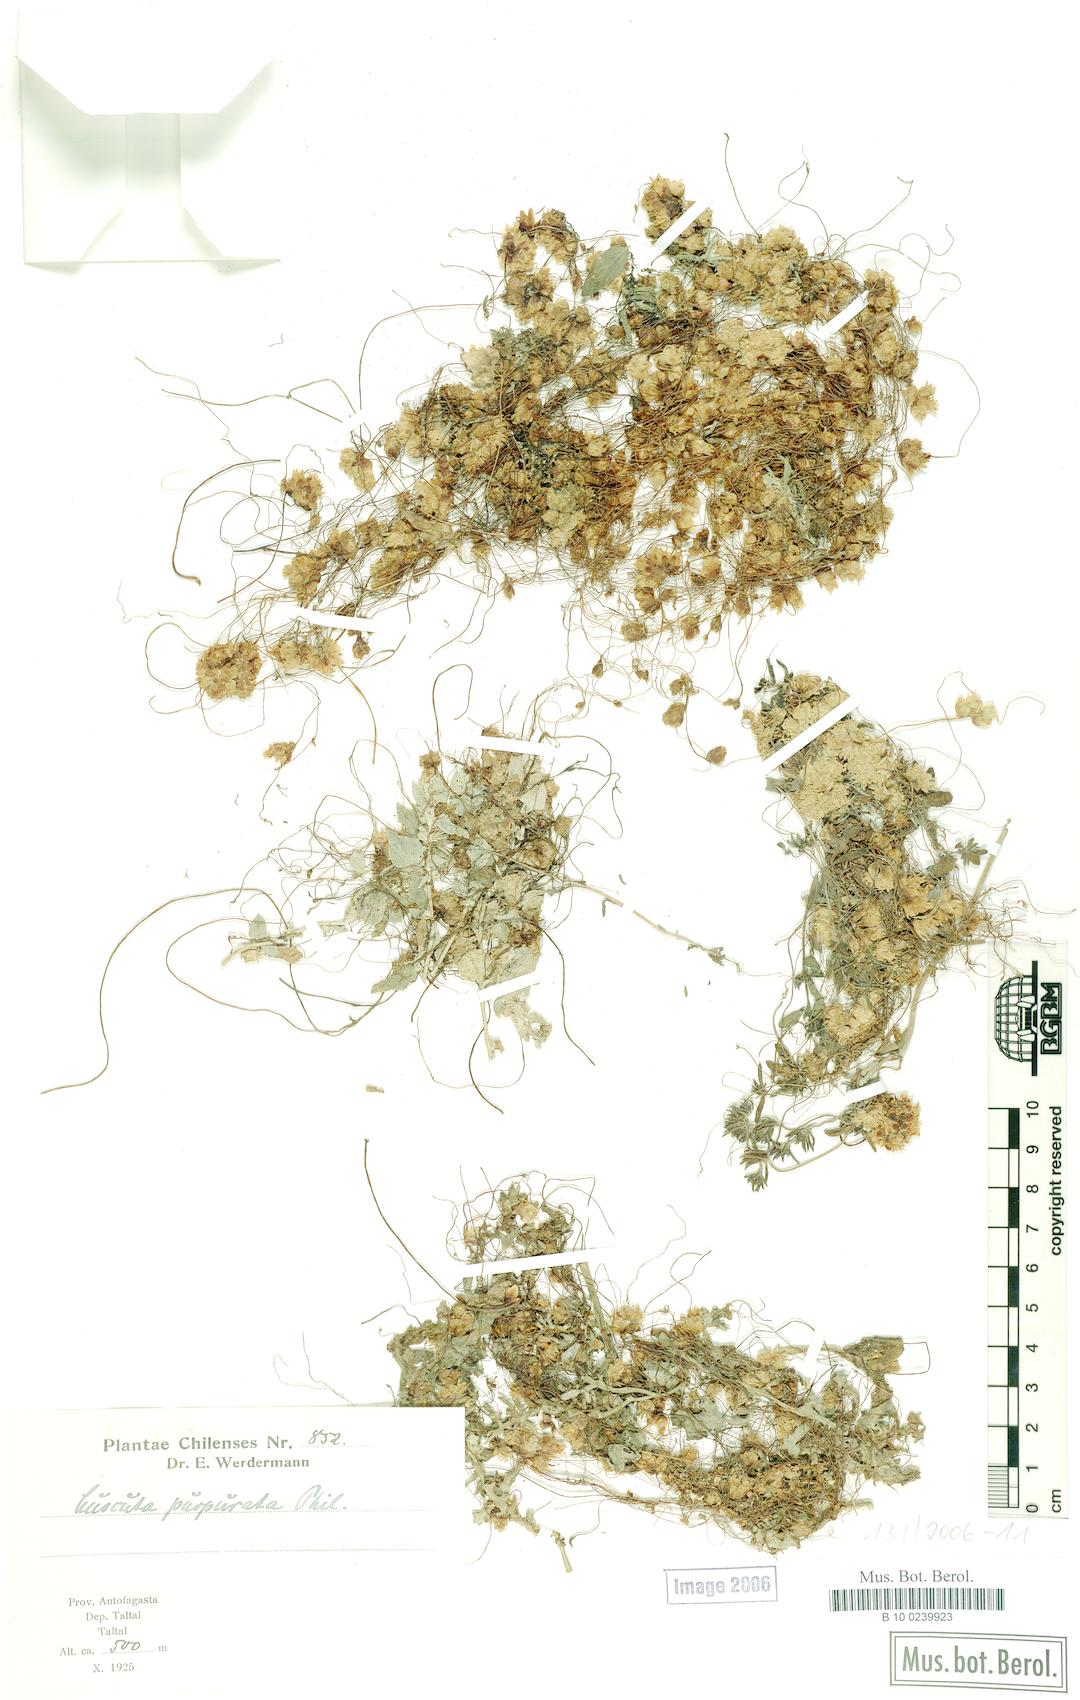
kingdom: Plantae
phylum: Tracheophyta
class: Magnoliopsida
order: Solanales
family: Convolvulaceae
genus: Cuscuta
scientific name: Cuscuta purpurata
